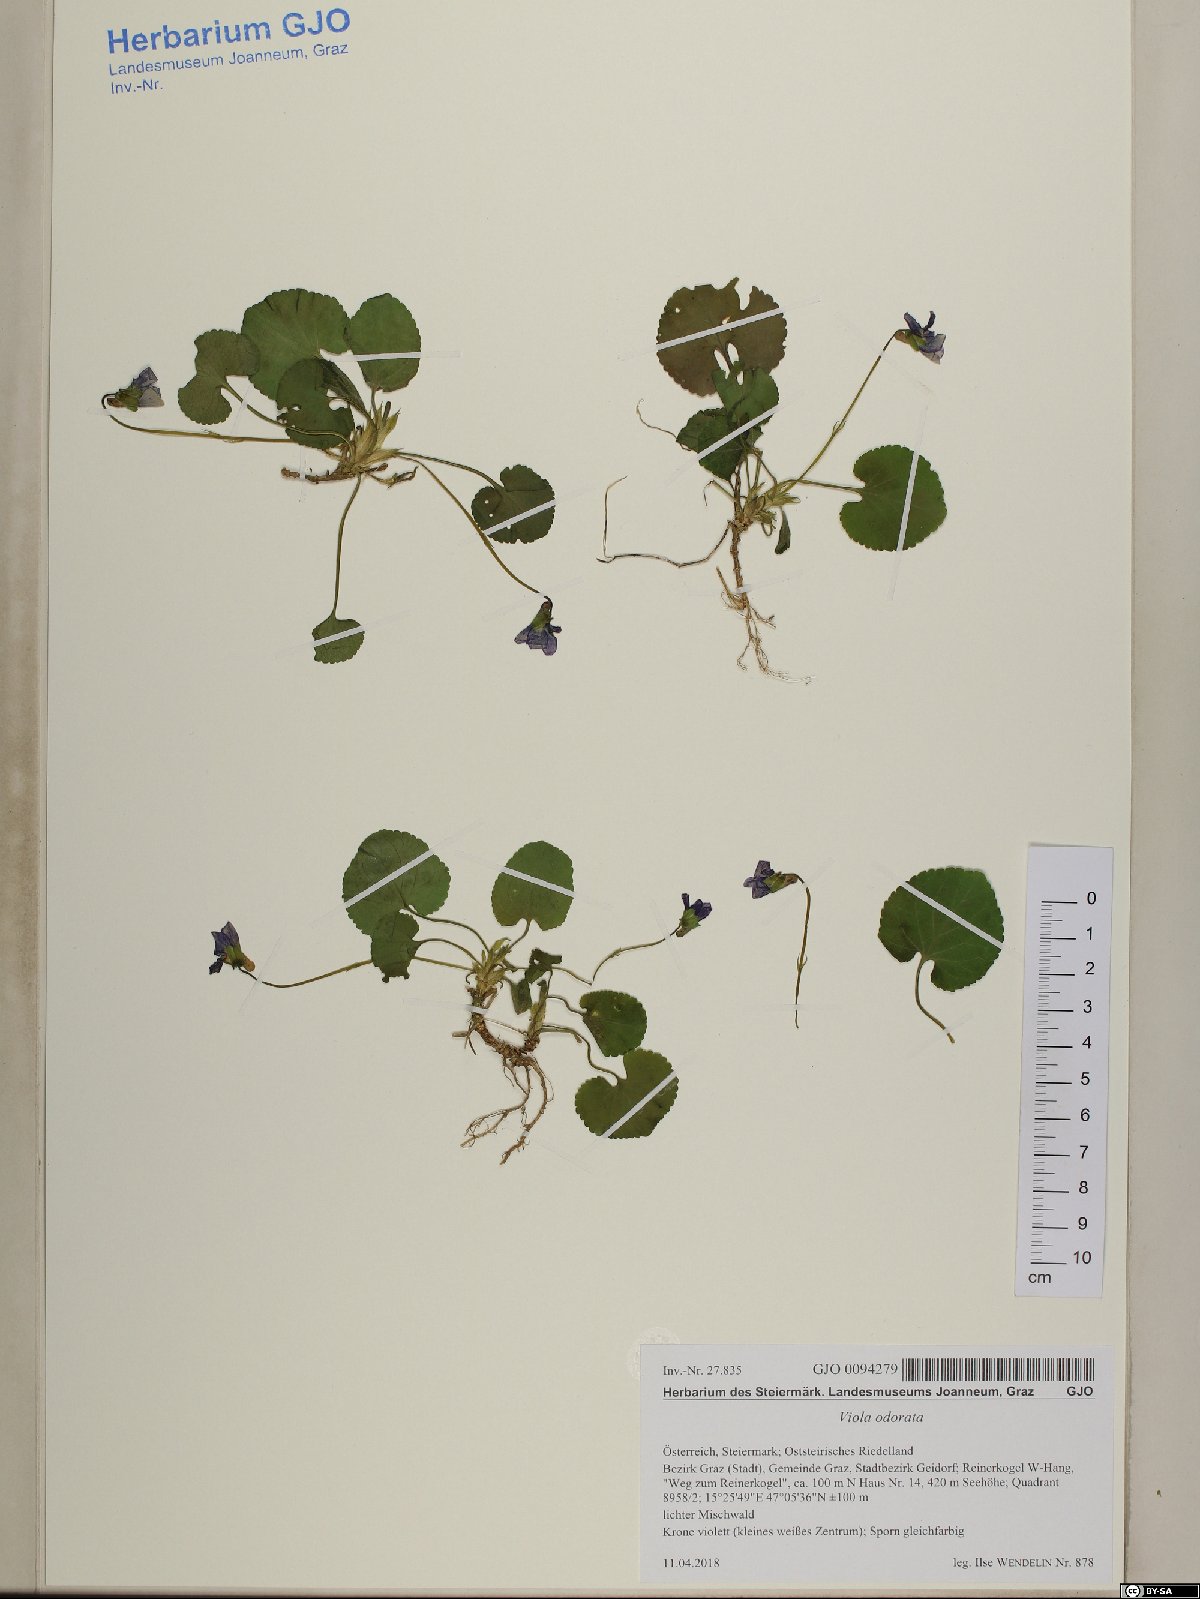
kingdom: Plantae
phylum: Tracheophyta
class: Magnoliopsida
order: Malpighiales
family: Violaceae
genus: Viola
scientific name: Viola odorata
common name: Sweet violet
